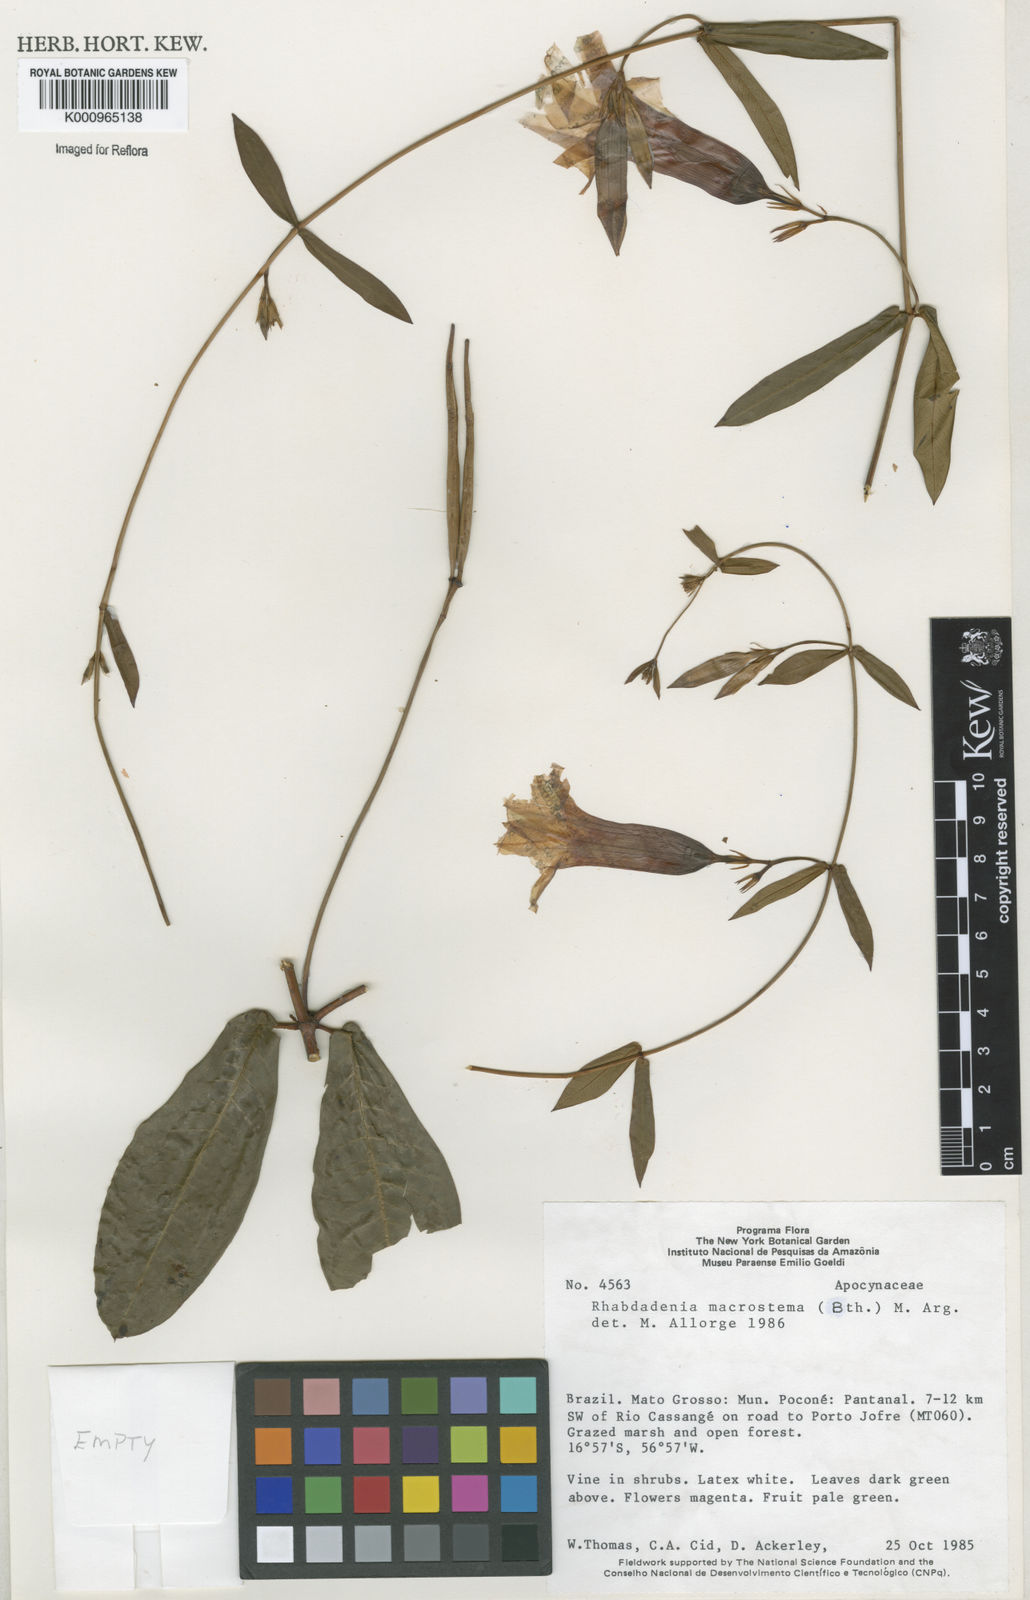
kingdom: Plantae
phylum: Tracheophyta
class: Magnoliopsida
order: Gentianales
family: Apocynaceae
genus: Rhabdadenia
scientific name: Rhabdadenia madida
